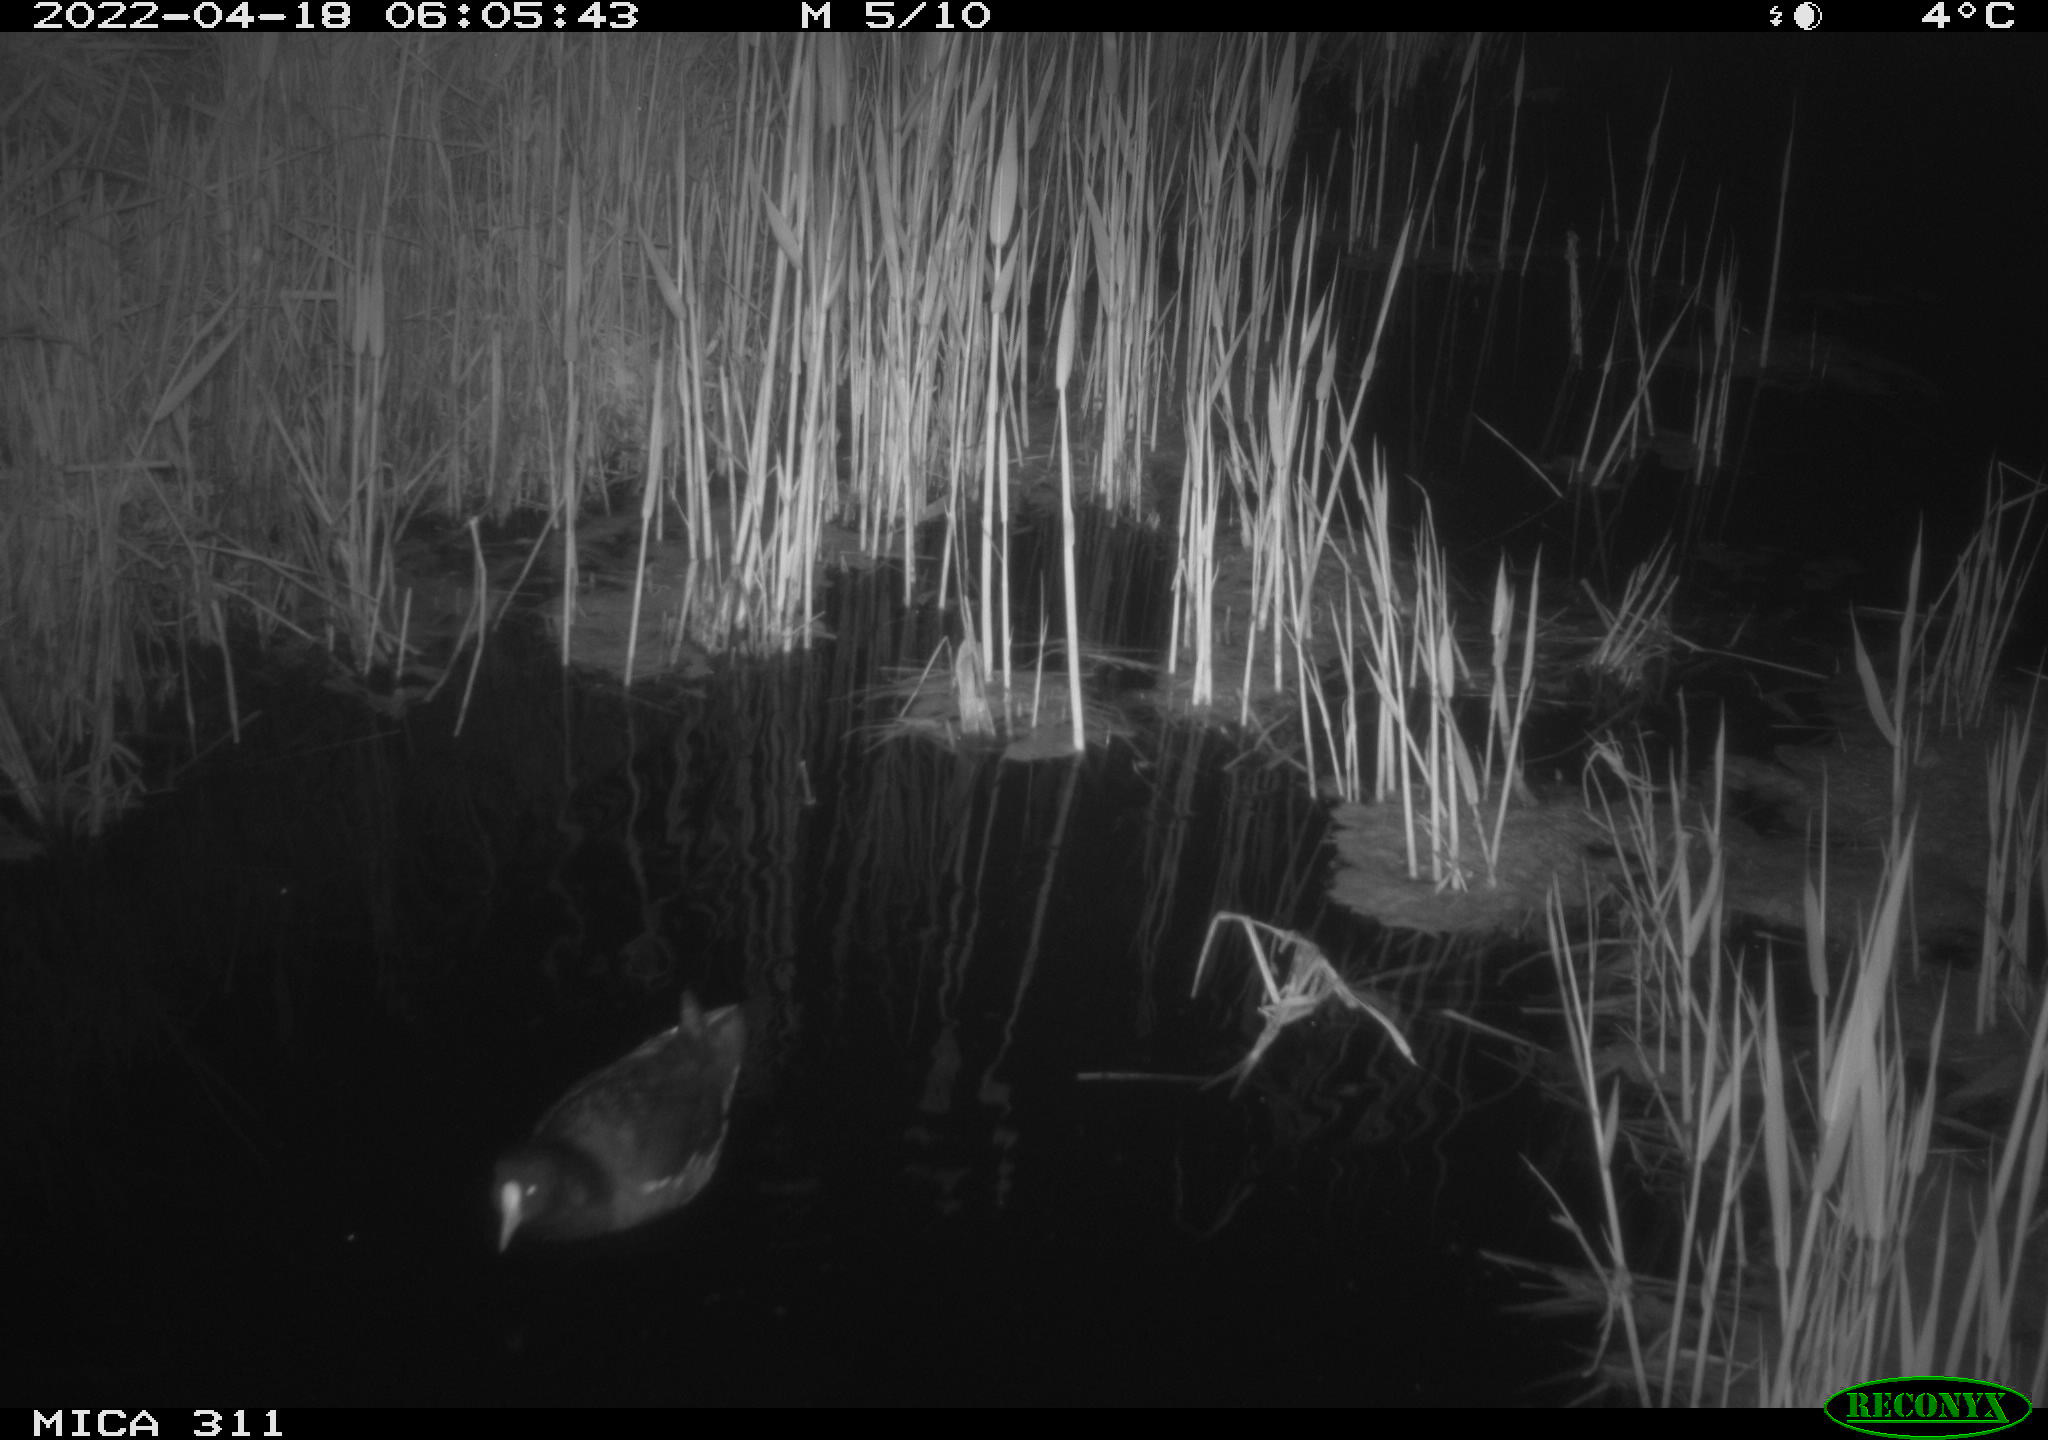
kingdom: Animalia
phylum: Chordata
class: Aves
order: Gruiformes
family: Rallidae
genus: Gallinula
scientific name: Gallinula chloropus
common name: Common moorhen
